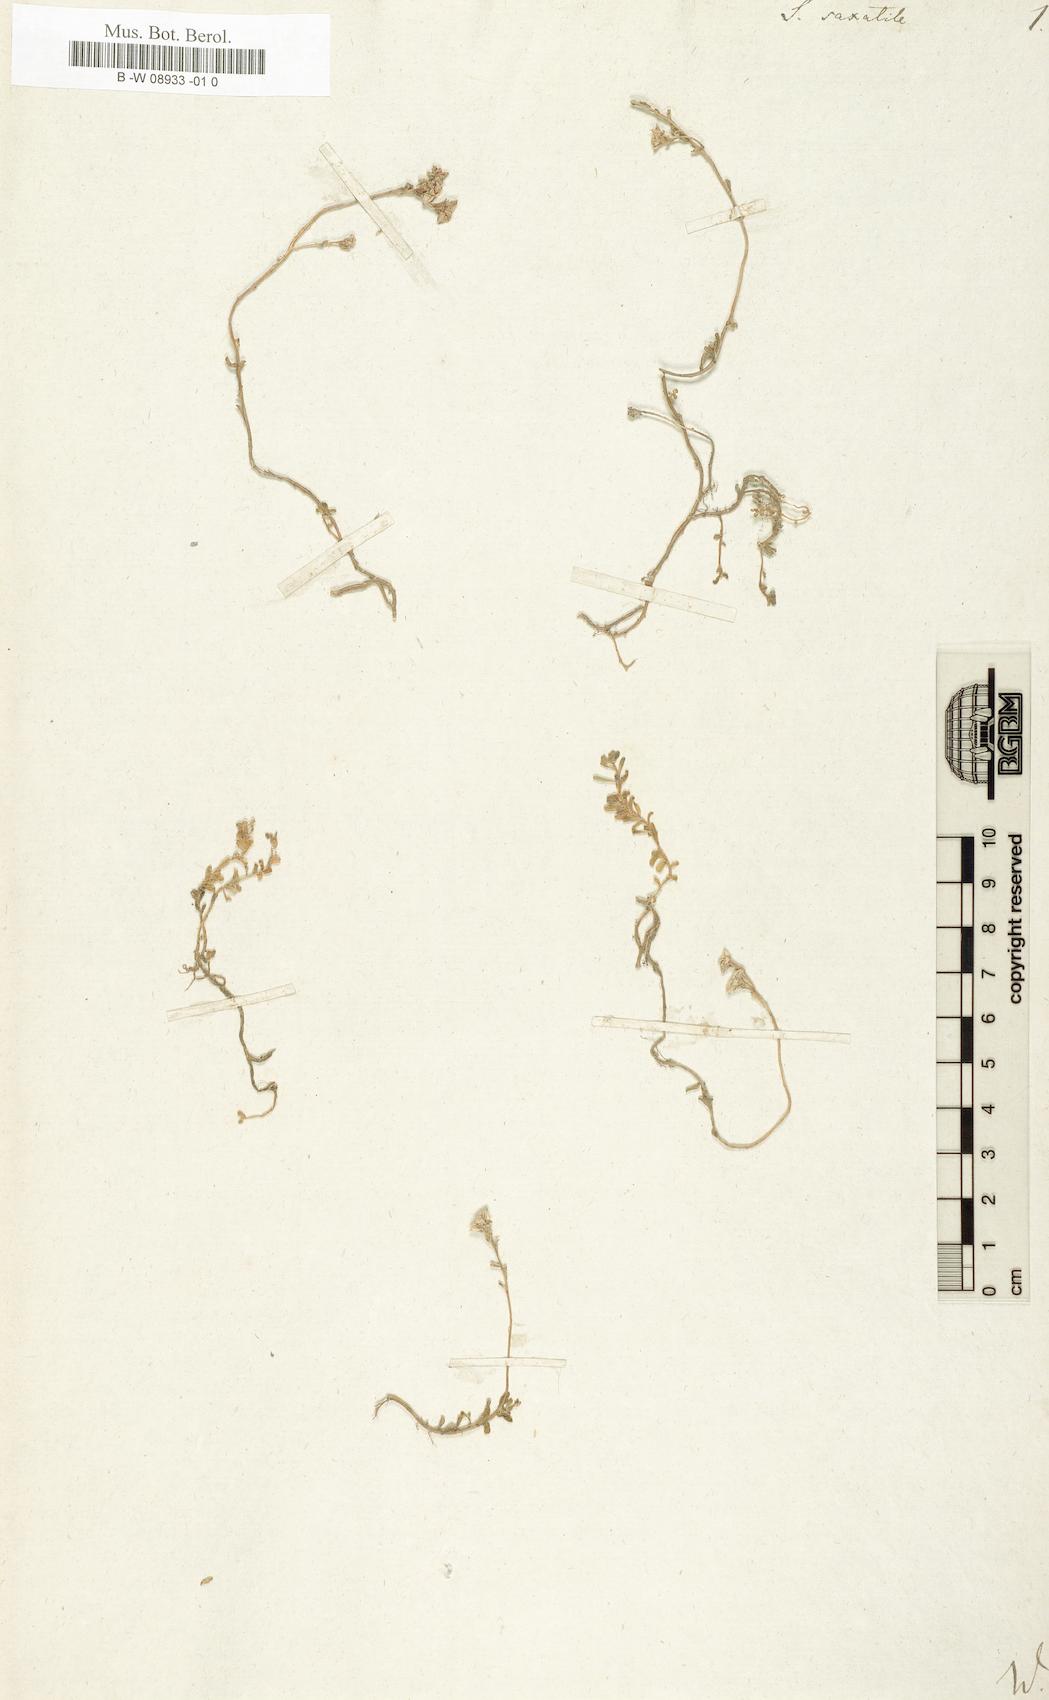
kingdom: Plantae
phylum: Tracheophyta
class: Magnoliopsida
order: Saxifragales
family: Crassulaceae
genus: Sedum
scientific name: Sedum
